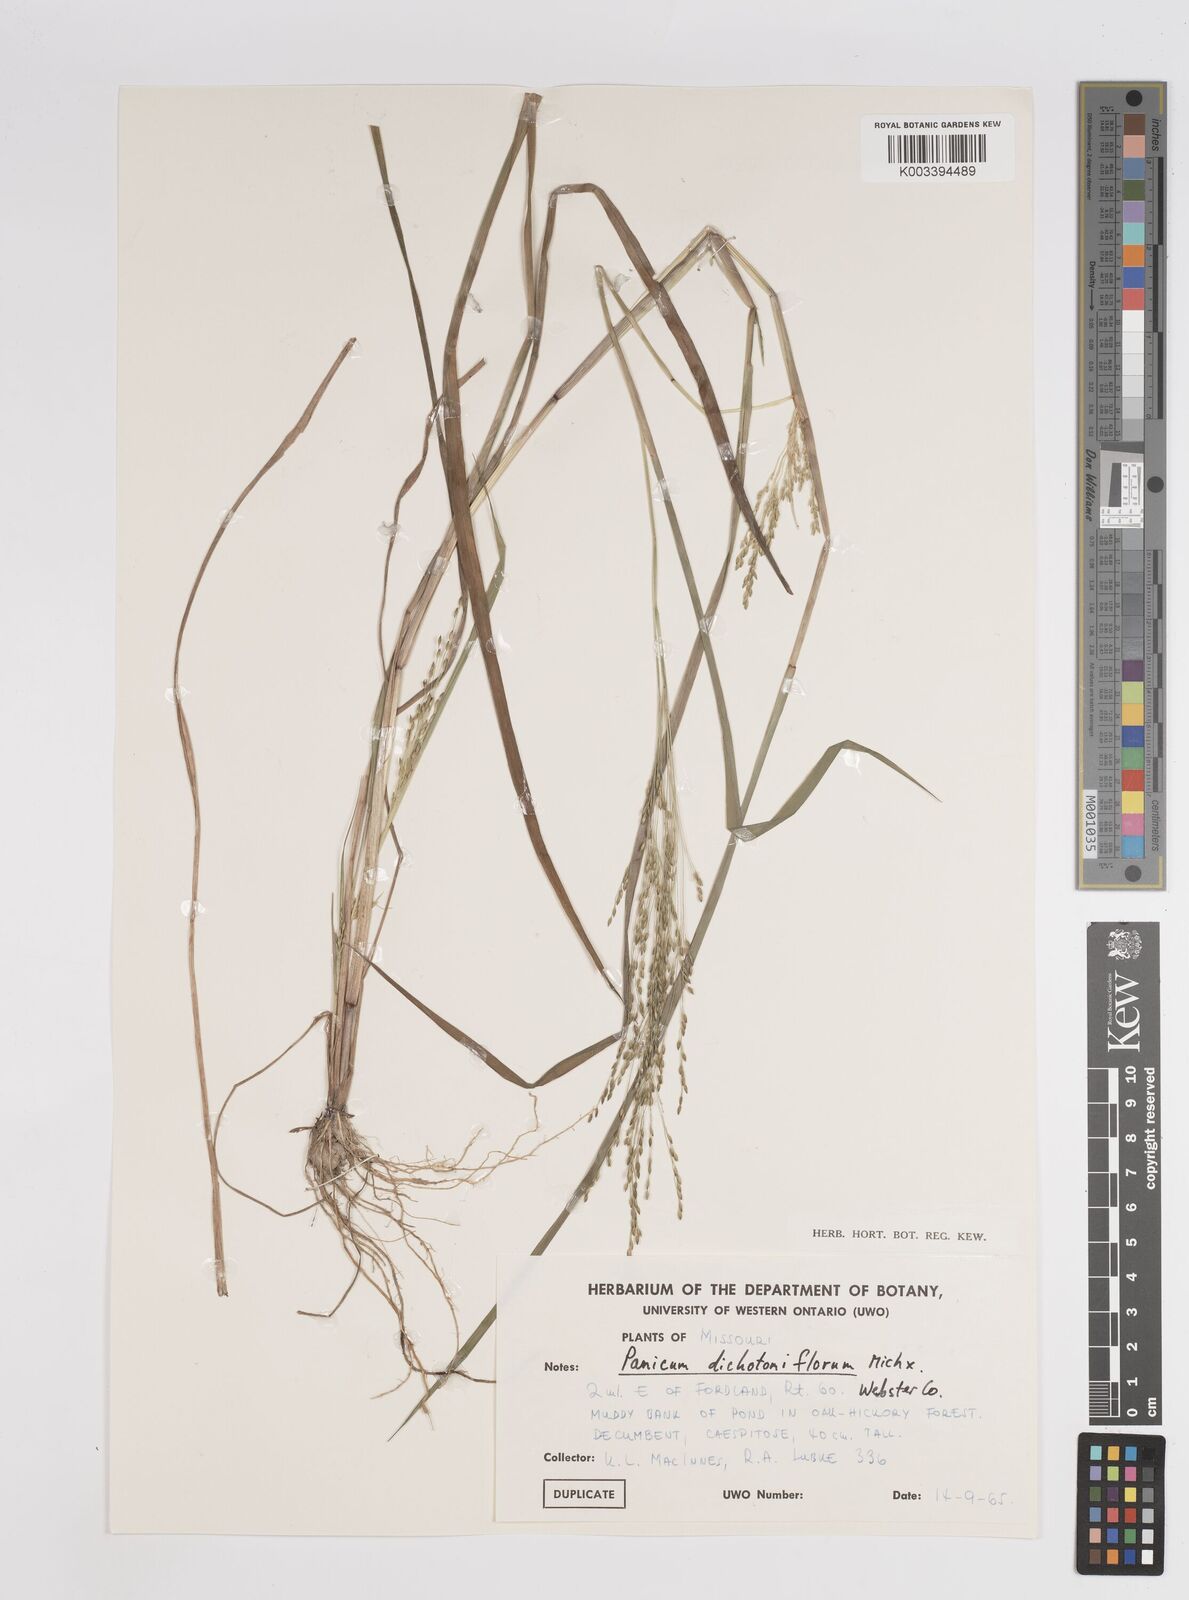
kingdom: Plantae
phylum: Tracheophyta
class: Liliopsida
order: Poales
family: Poaceae
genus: Panicum
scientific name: Panicum dichotomiflorum
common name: Autumn millet
